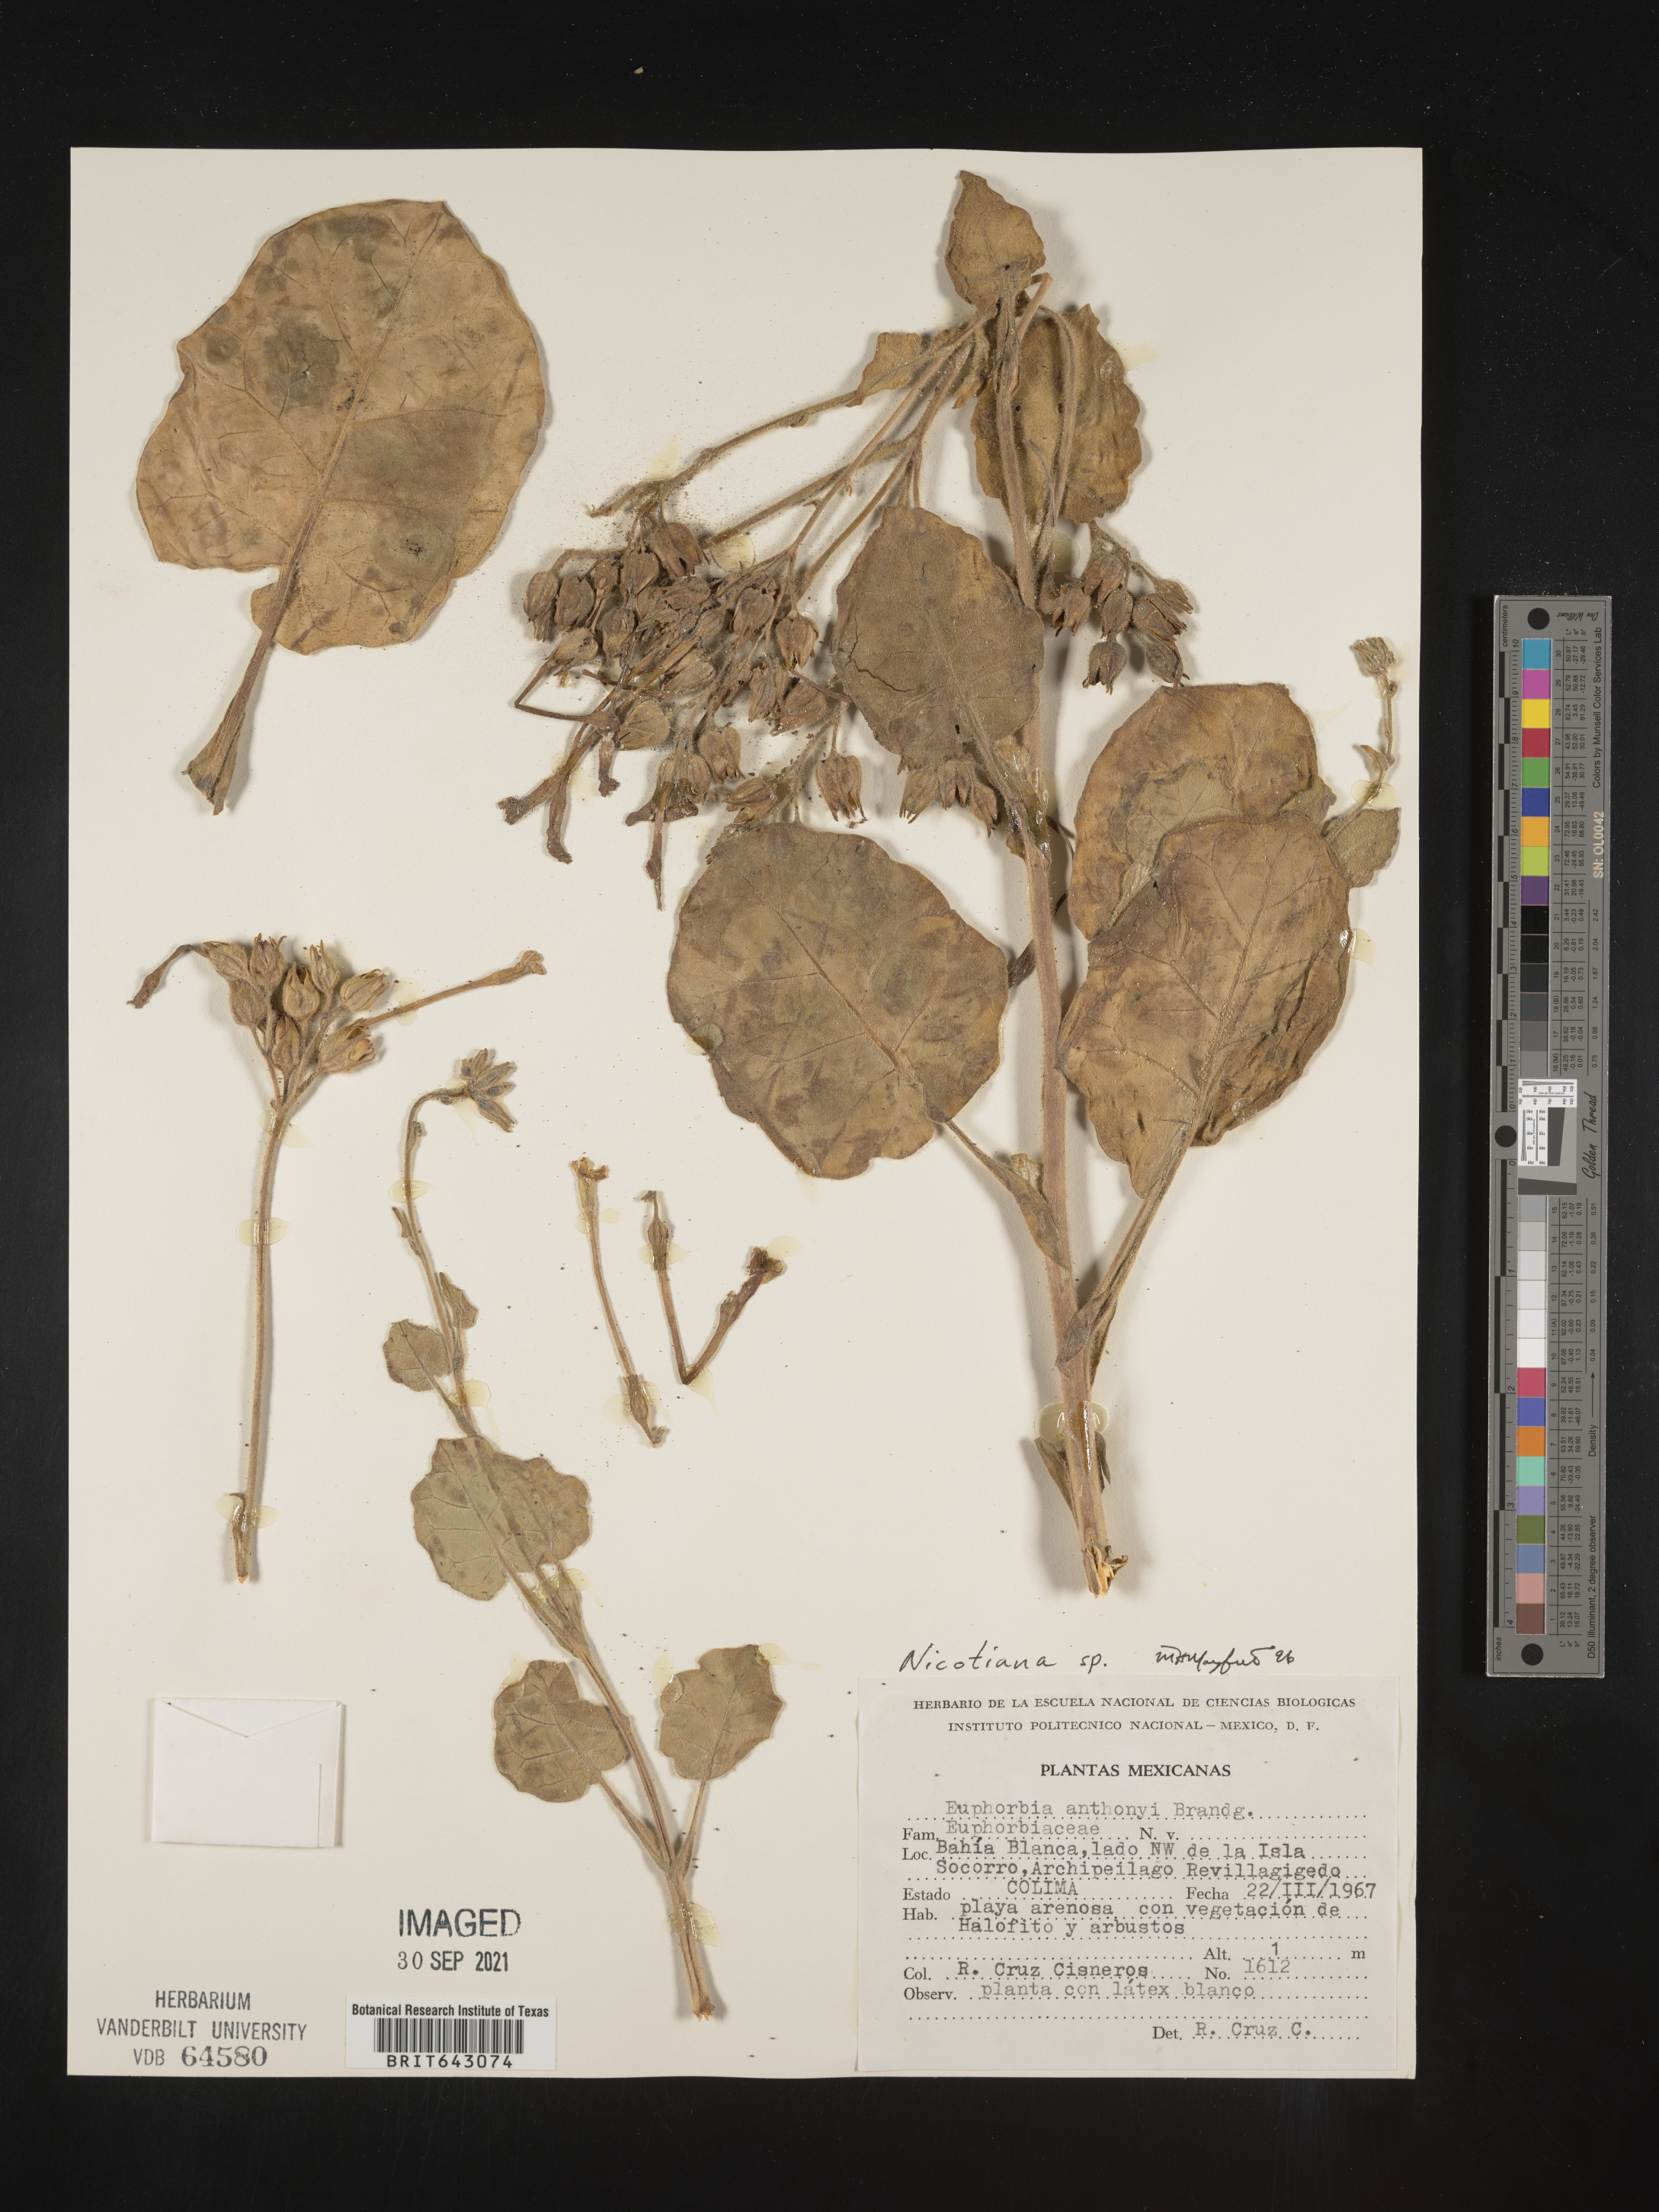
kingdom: Plantae
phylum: Tracheophyta
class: Magnoliopsida
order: Solanales
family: Solanaceae
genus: Nicotiana
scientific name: Nicotiana
